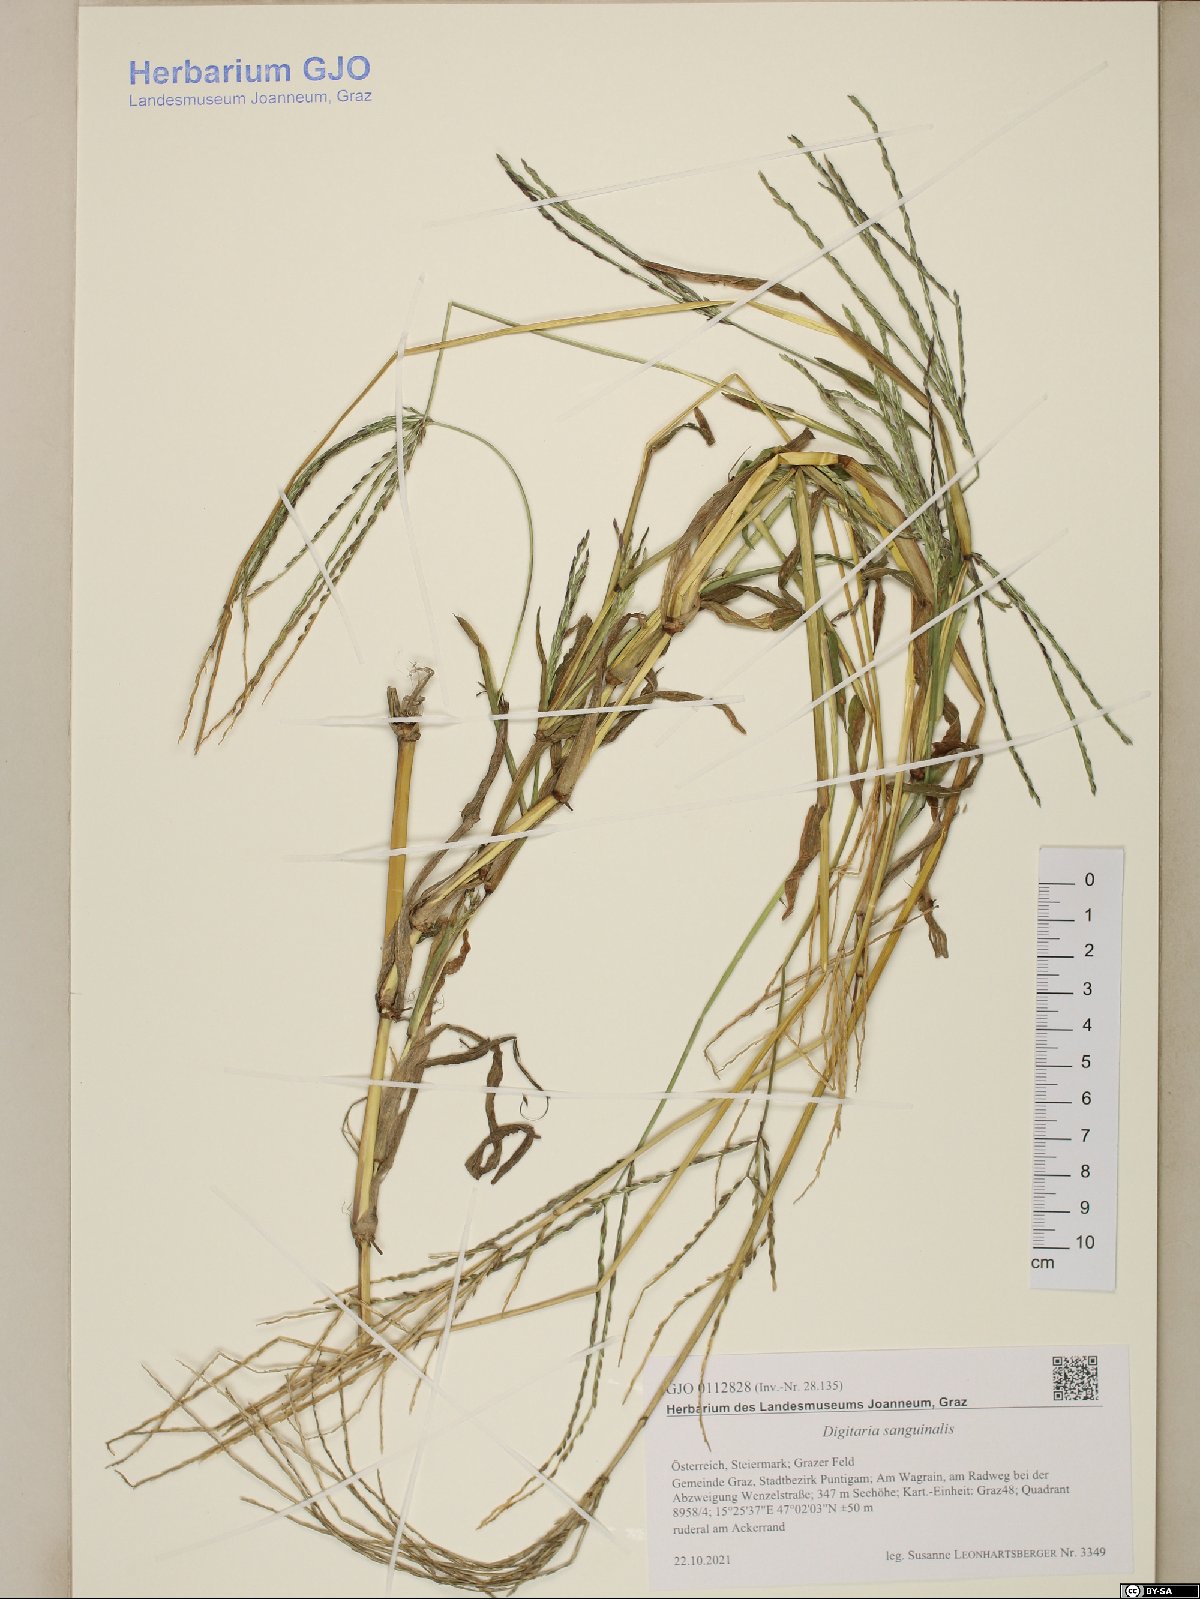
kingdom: Plantae
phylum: Tracheophyta
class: Liliopsida
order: Poales
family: Poaceae
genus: Digitaria
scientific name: Digitaria sanguinalis
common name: Hairy crabgrass
